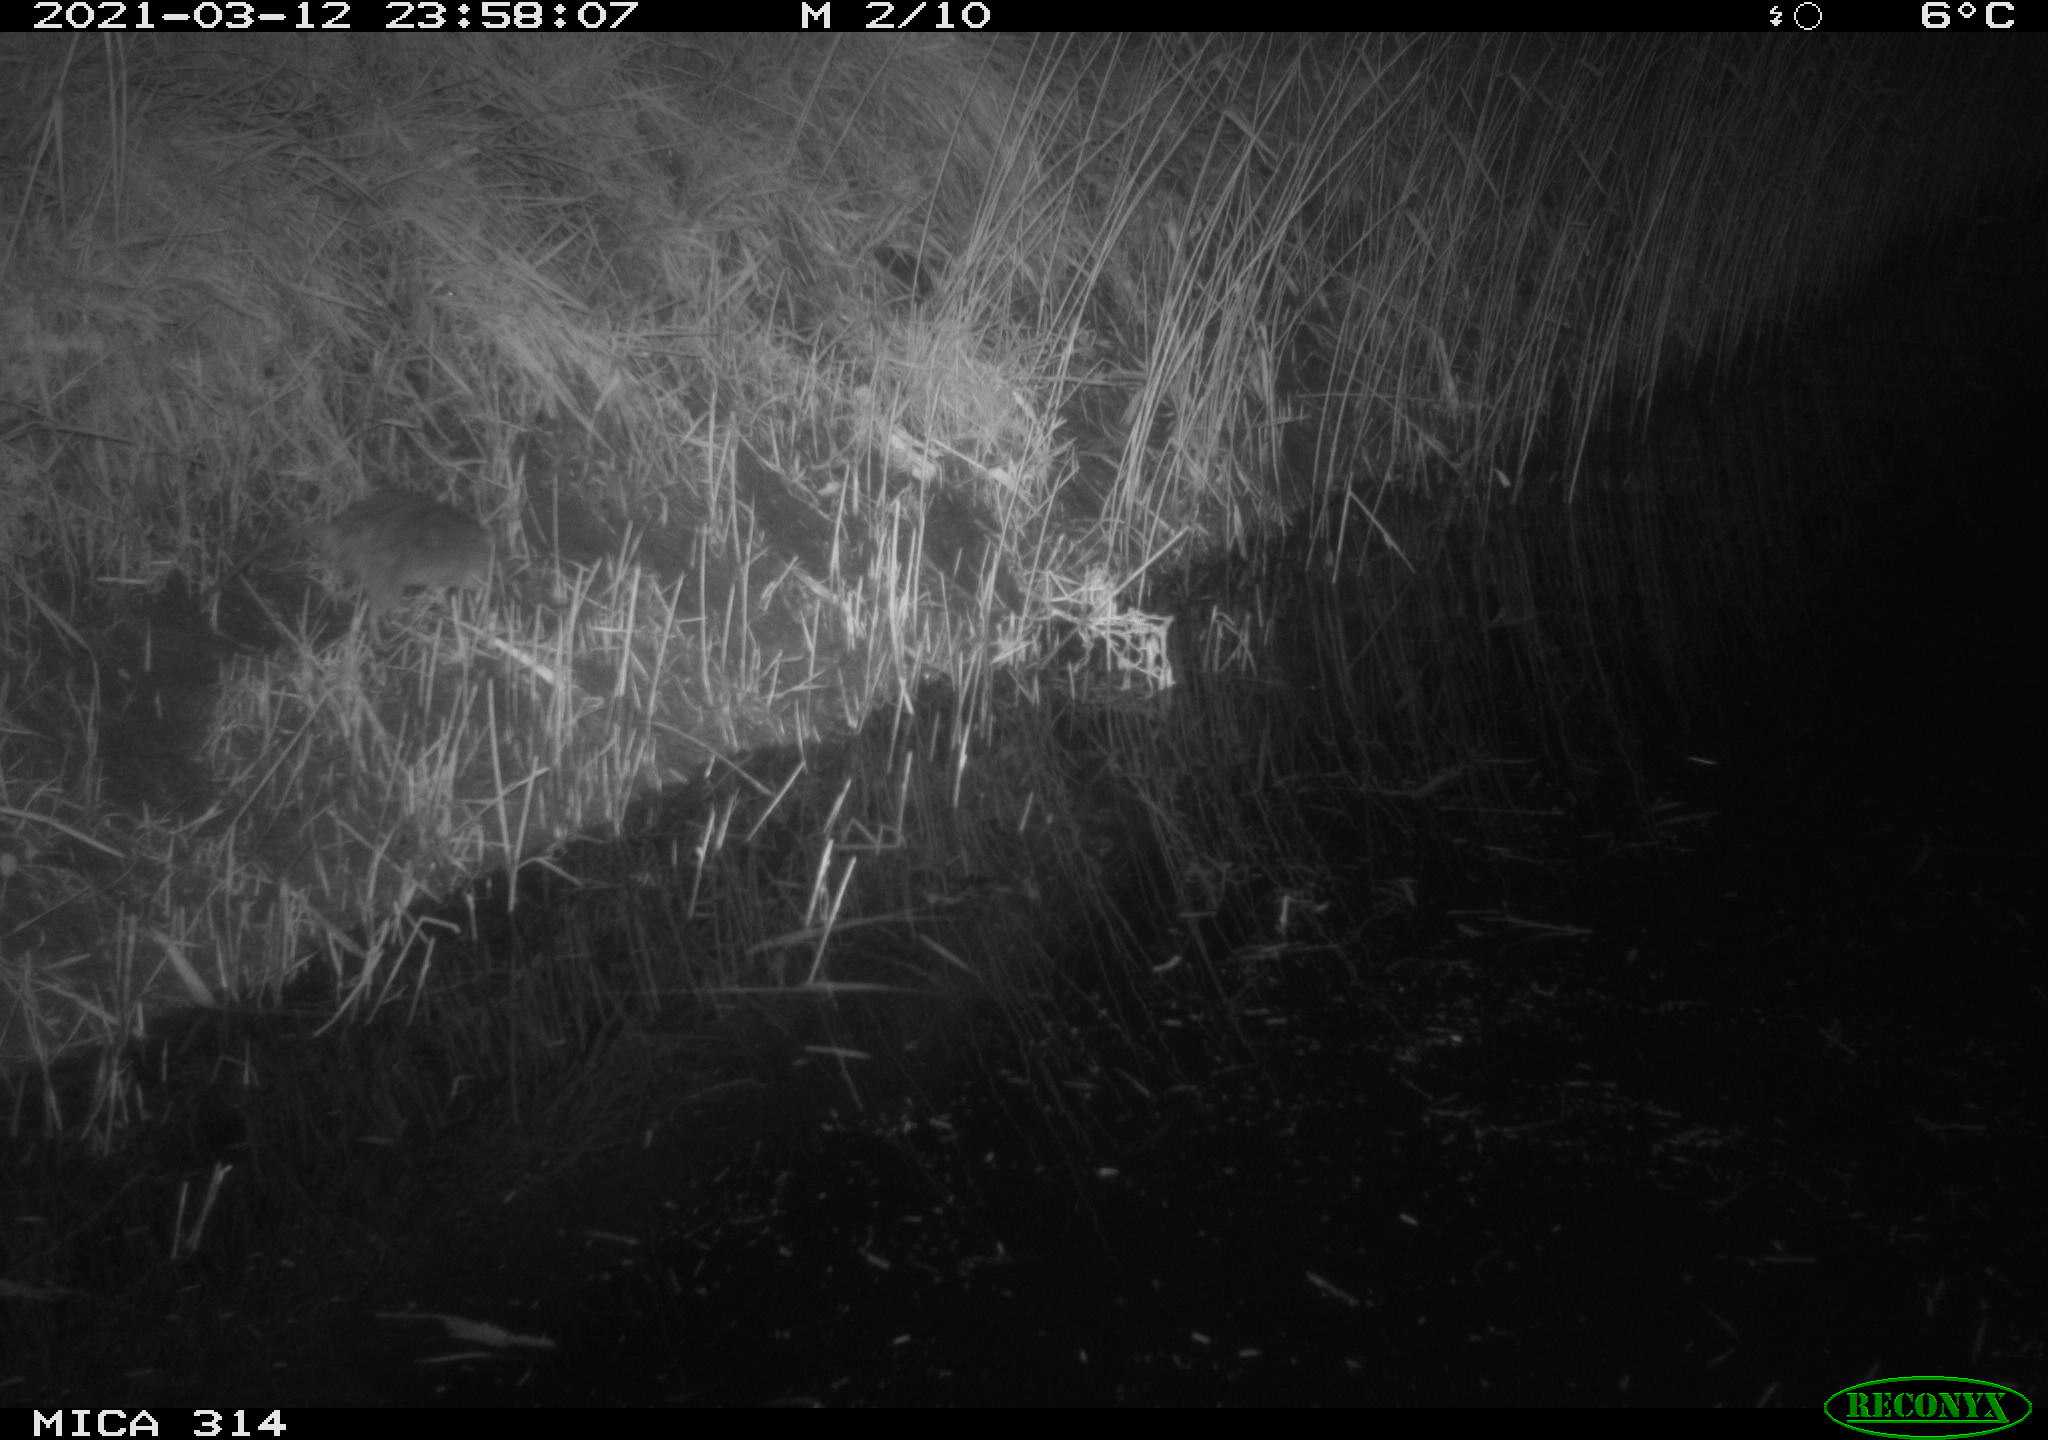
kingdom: Animalia
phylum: Chordata
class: Mammalia
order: Rodentia
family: Muridae
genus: Rattus
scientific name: Rattus norvegicus
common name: Brown rat
